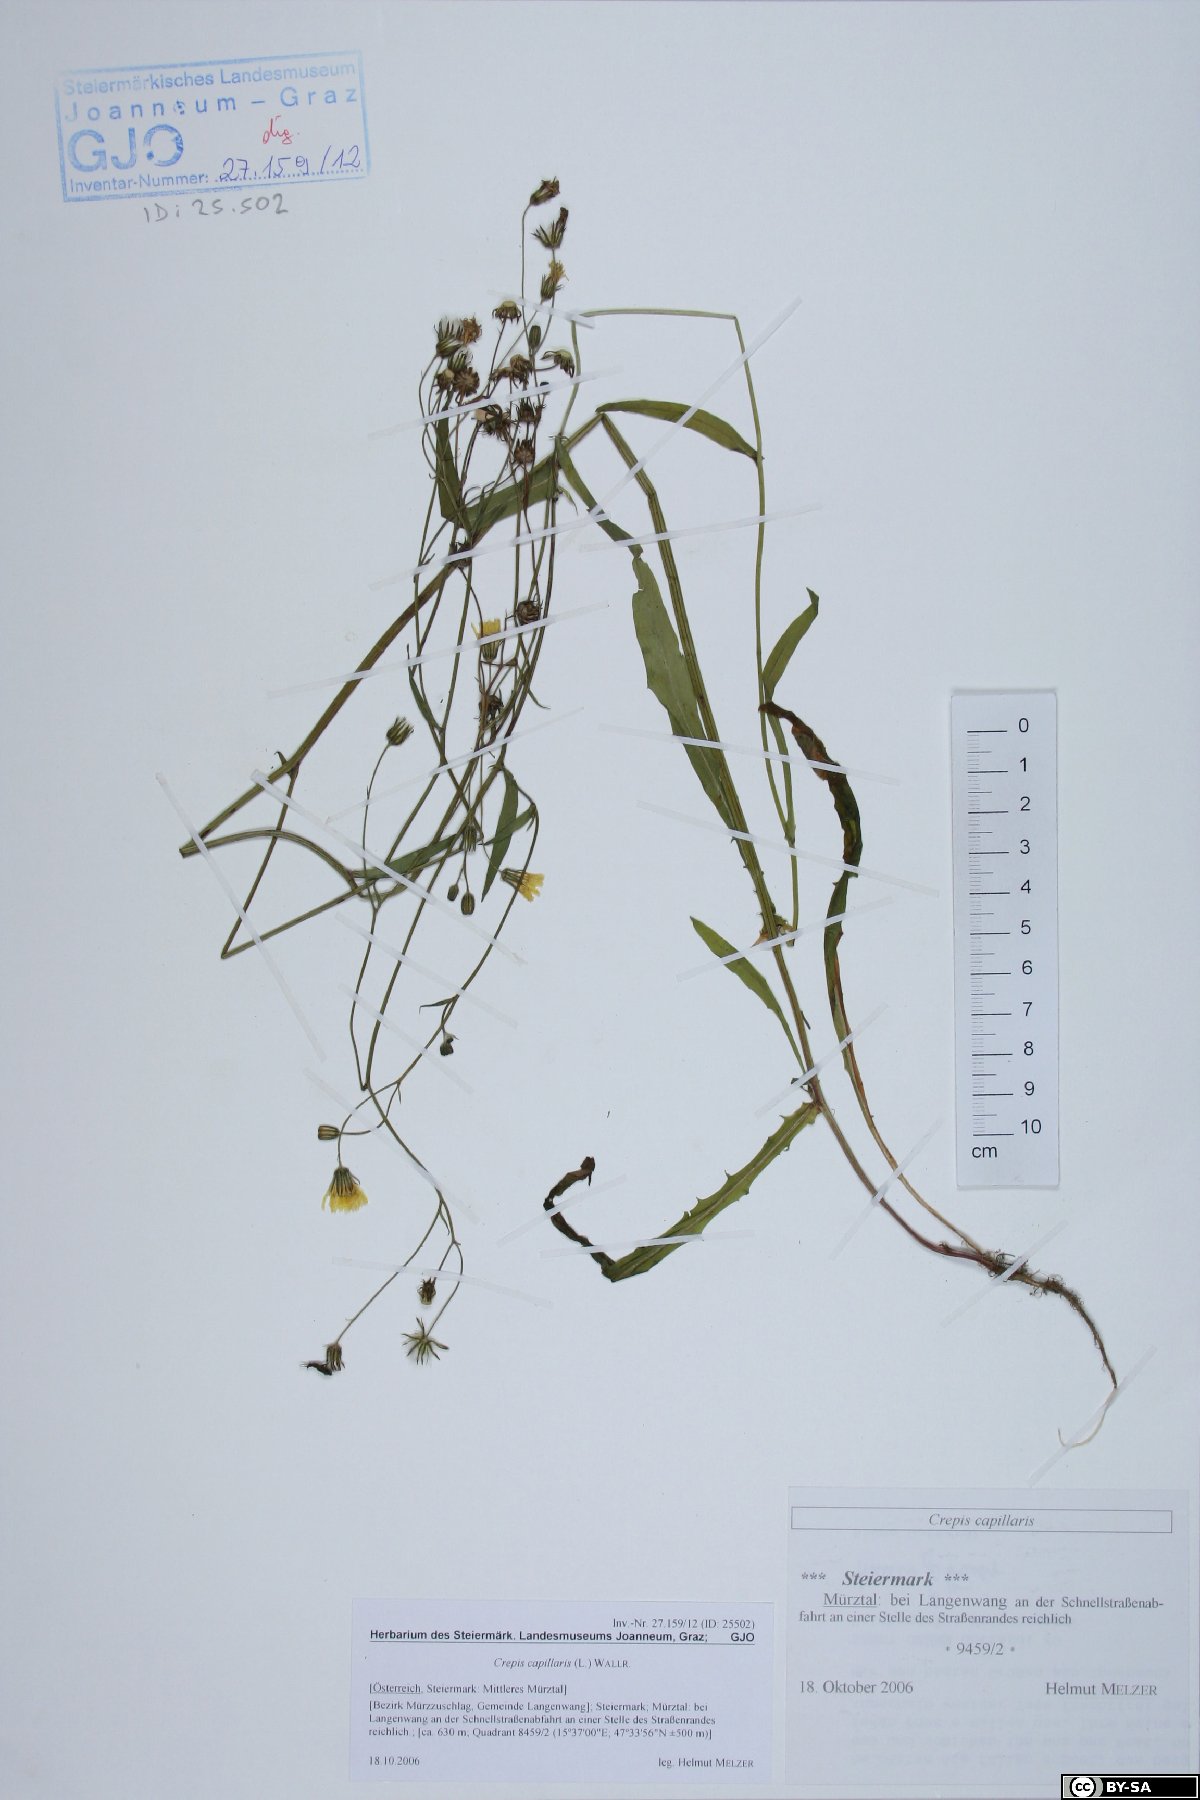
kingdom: Plantae
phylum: Tracheophyta
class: Magnoliopsida
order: Asterales
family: Asteraceae
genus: Crepis
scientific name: Crepis capillaris
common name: Smooth hawksbeard
